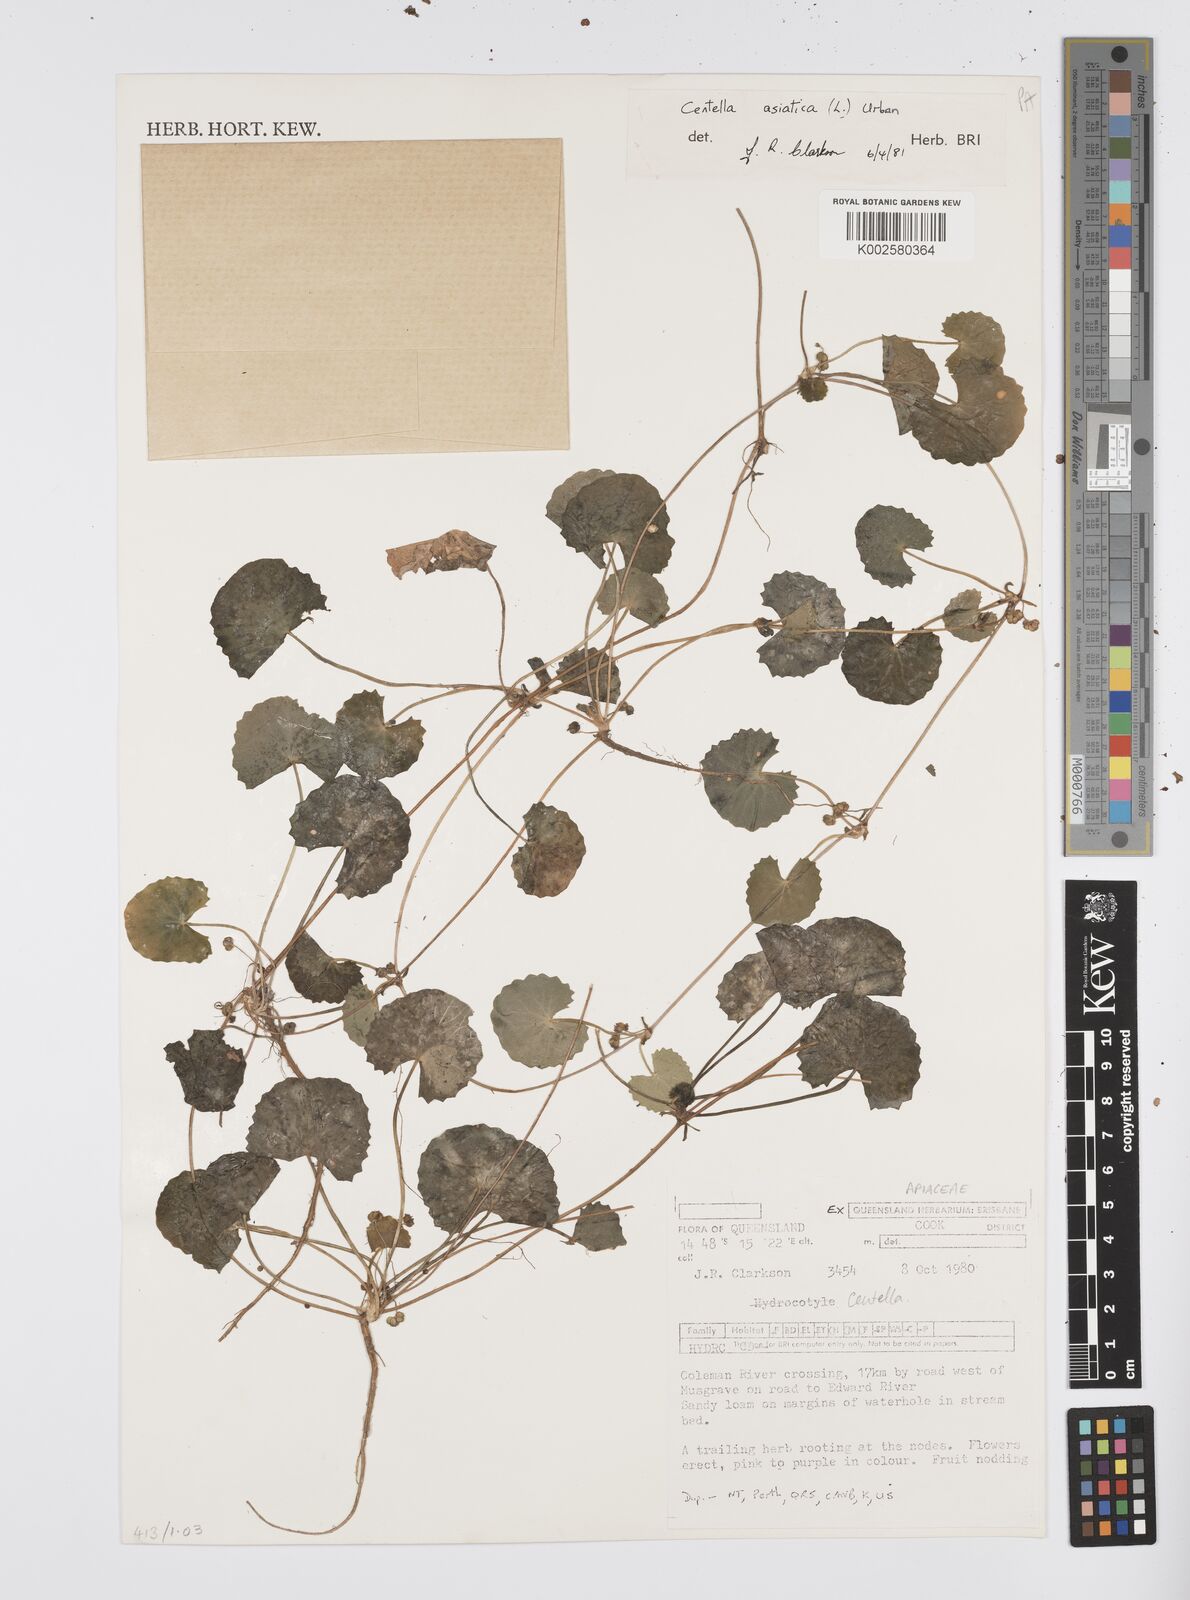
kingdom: Plantae
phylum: Tracheophyta
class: Magnoliopsida
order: Apiales
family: Apiaceae
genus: Centella
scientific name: Centella asiatica
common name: Spadeleaf
